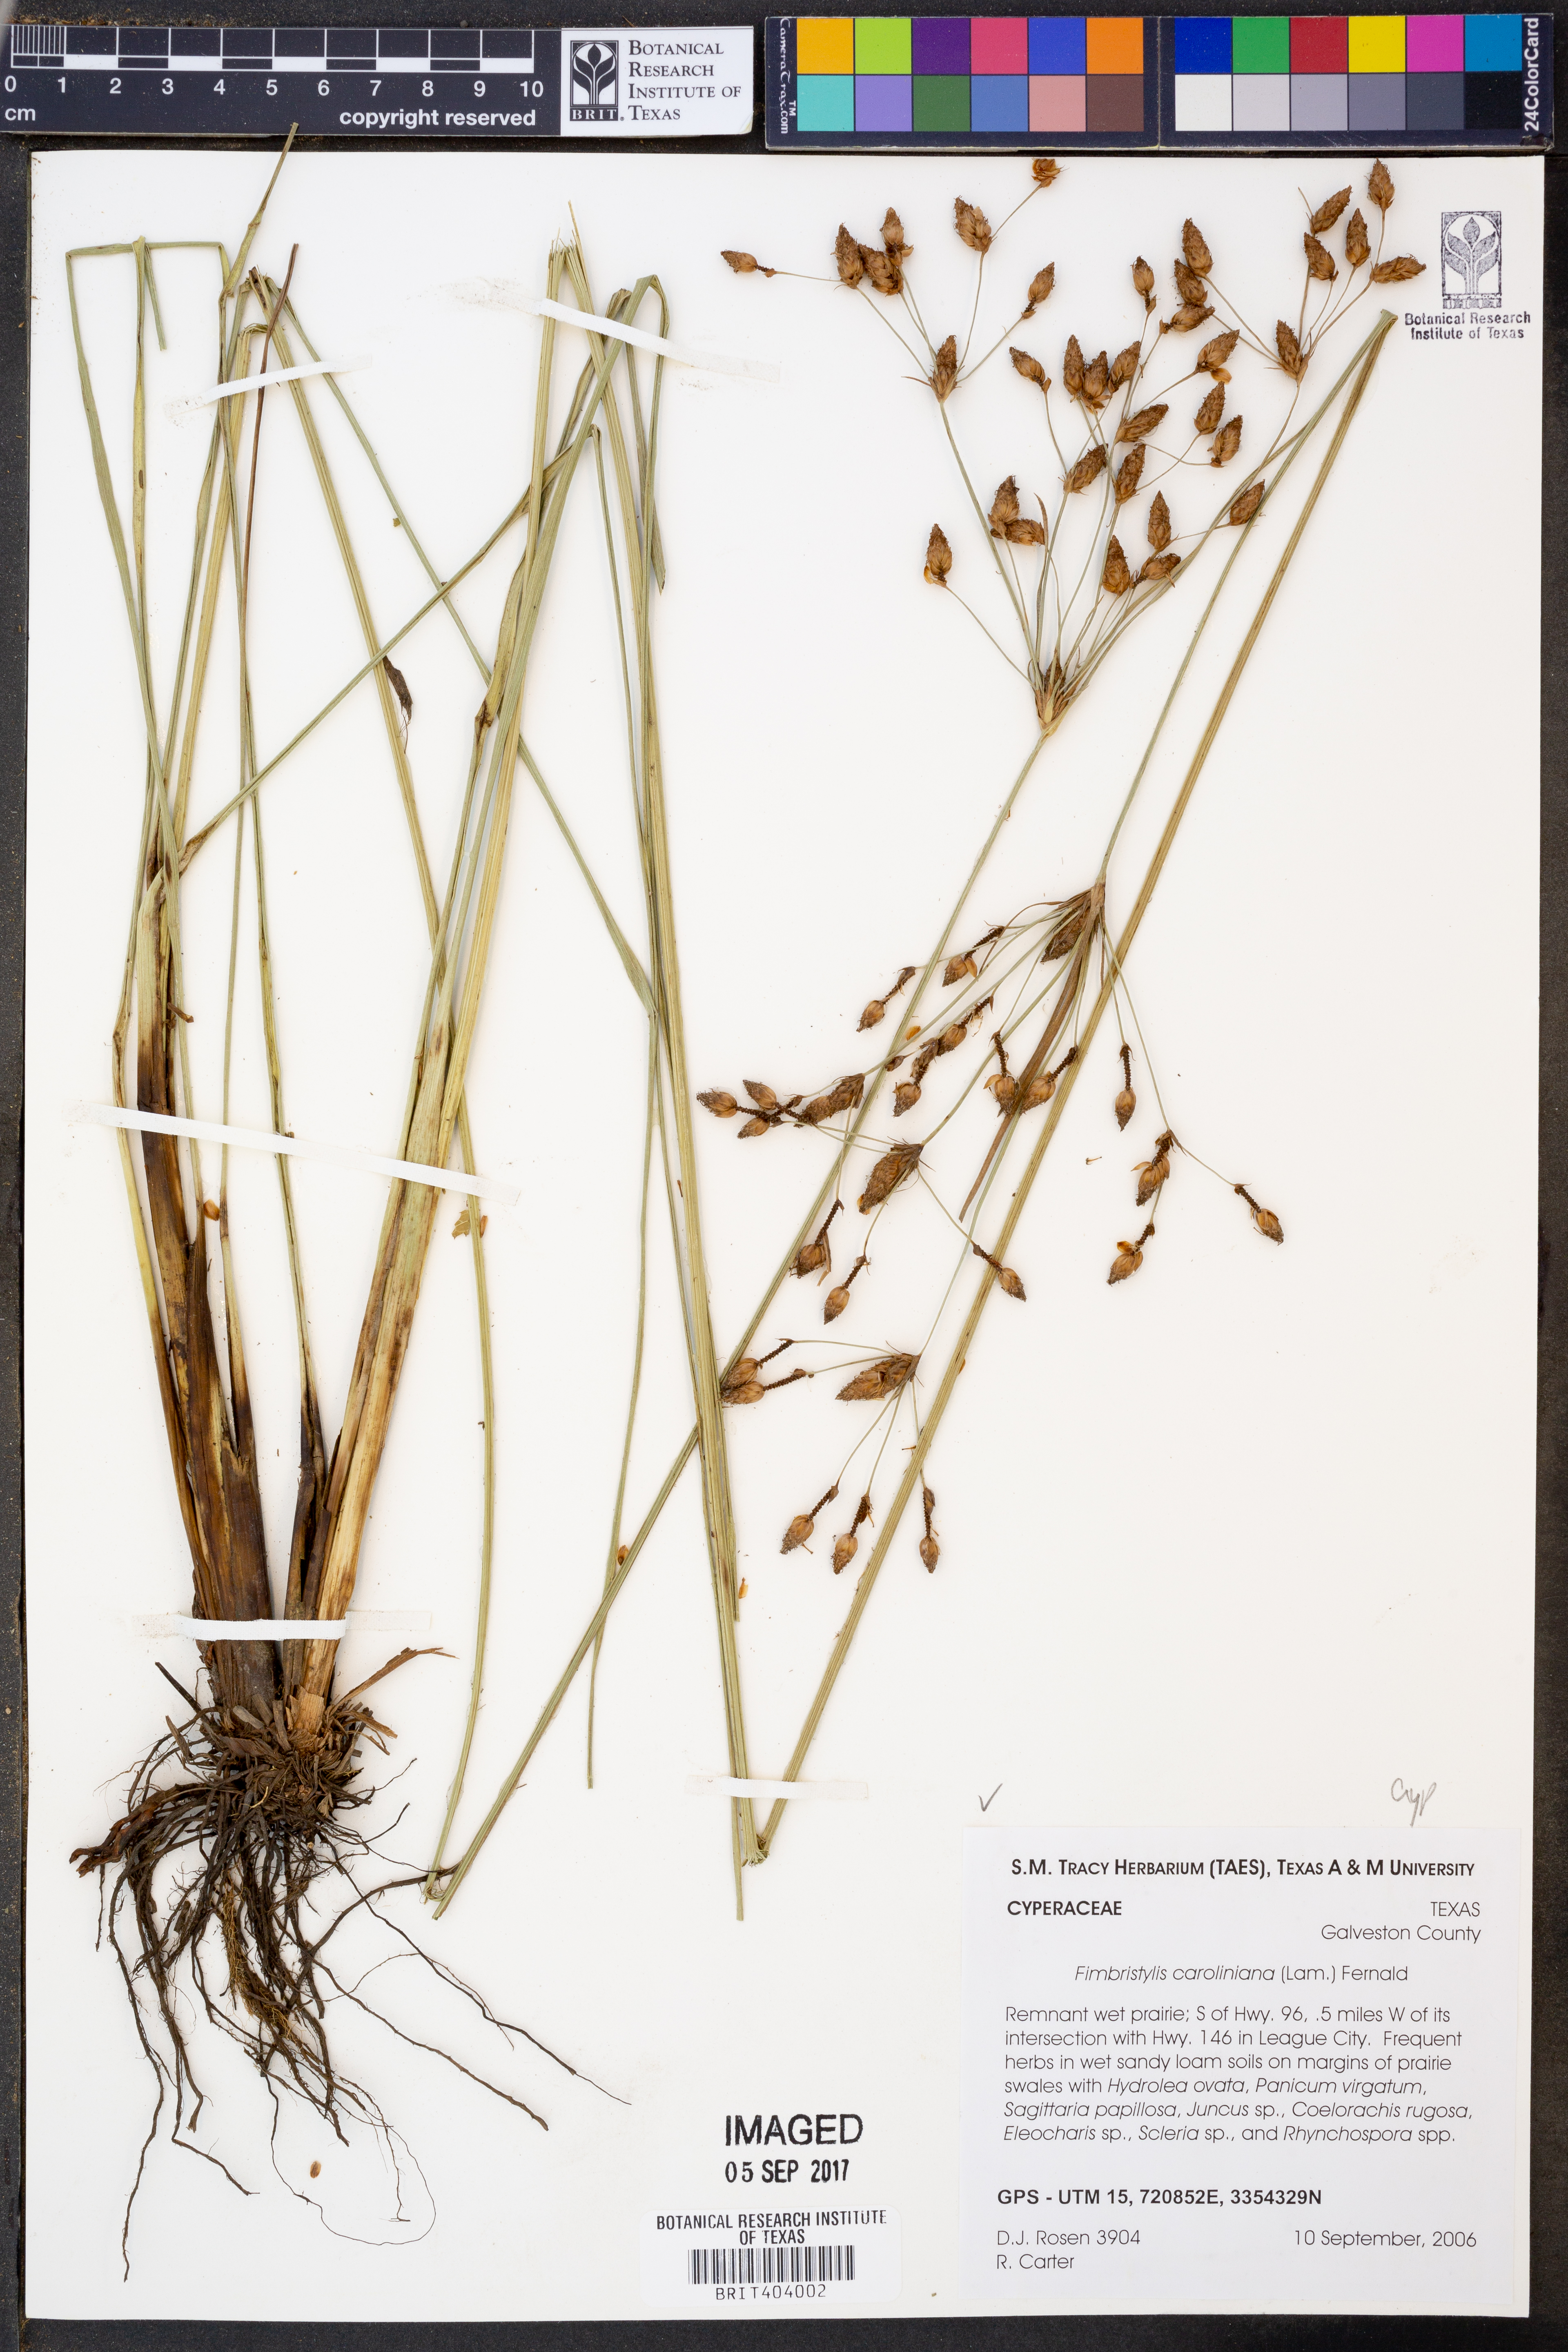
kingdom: Plantae
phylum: Tracheophyta
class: Liliopsida
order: Poales
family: Cyperaceae
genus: Fimbristylis
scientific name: Fimbristylis caroliniana
